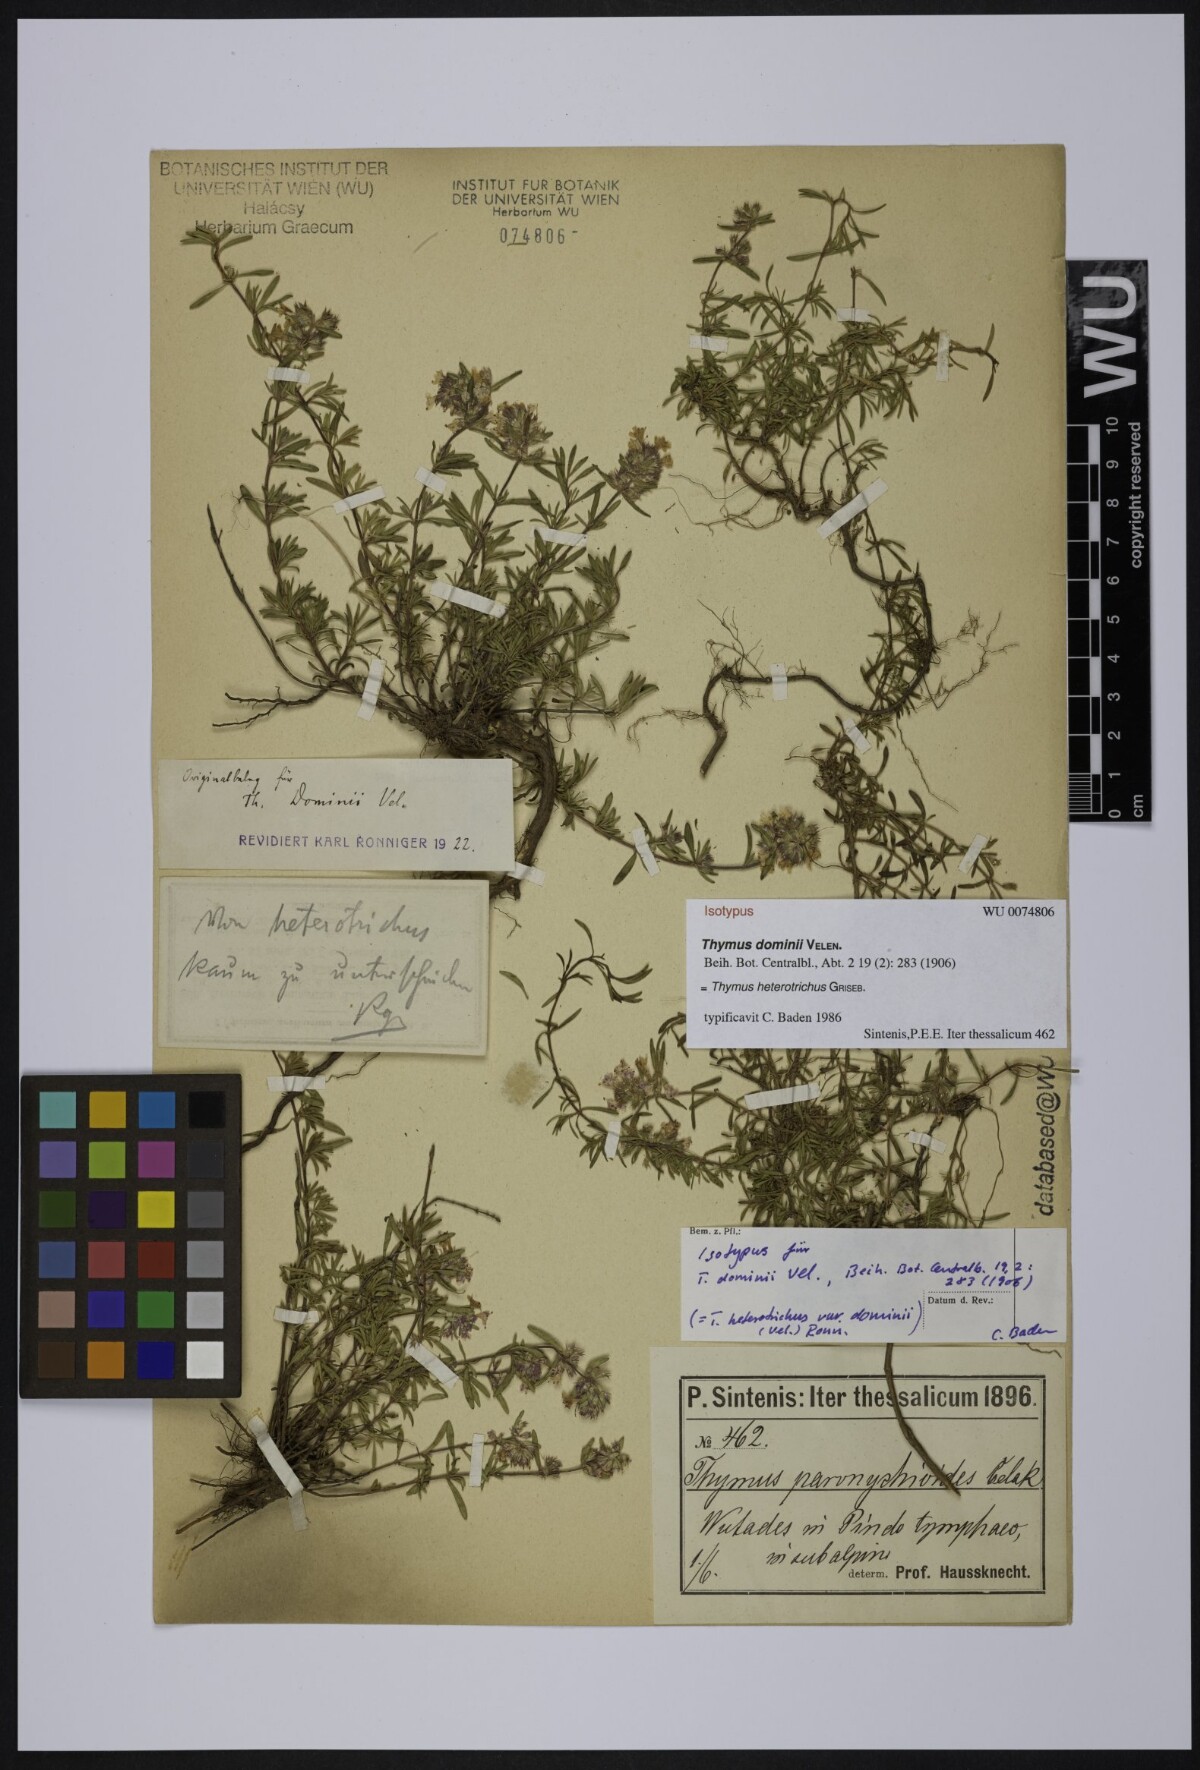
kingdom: Plantae
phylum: Tracheophyta
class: Magnoliopsida
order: Lamiales
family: Lamiaceae
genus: Thymus
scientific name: Thymus sibthorpii
